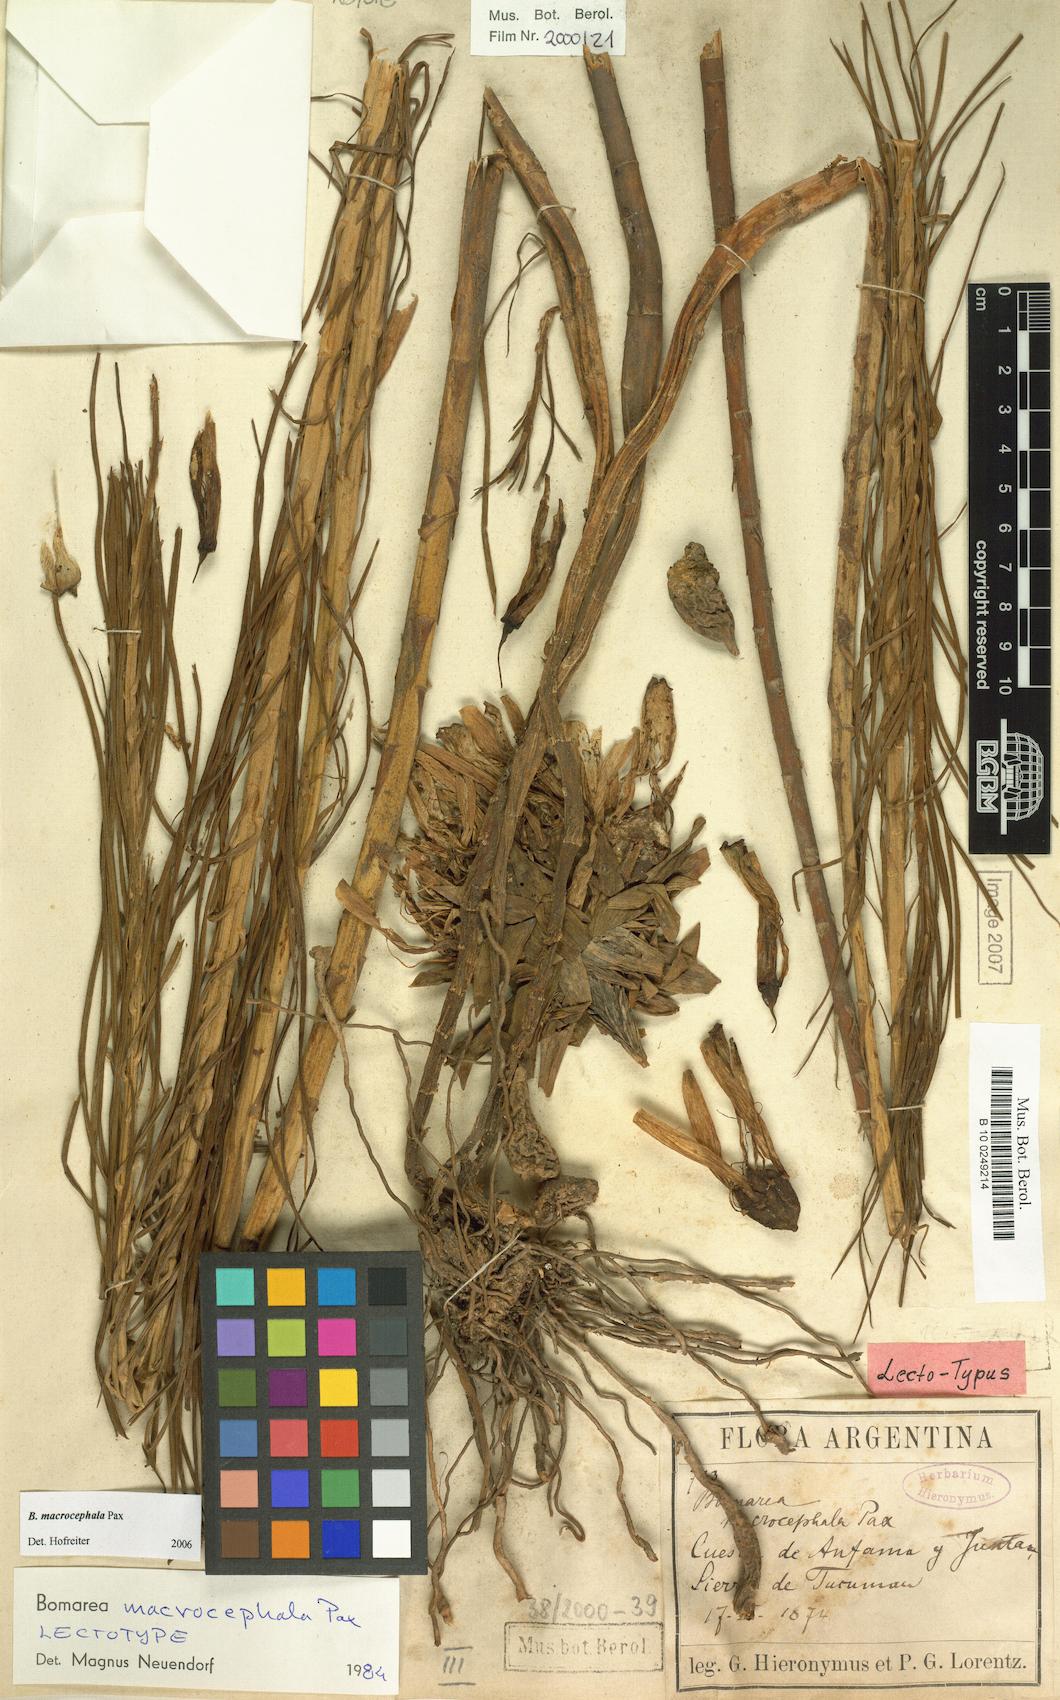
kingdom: Plantae
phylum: Tracheophyta
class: Liliopsida
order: Liliales
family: Alstroemeriaceae
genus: Bomarea
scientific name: Bomarea macrocephala
